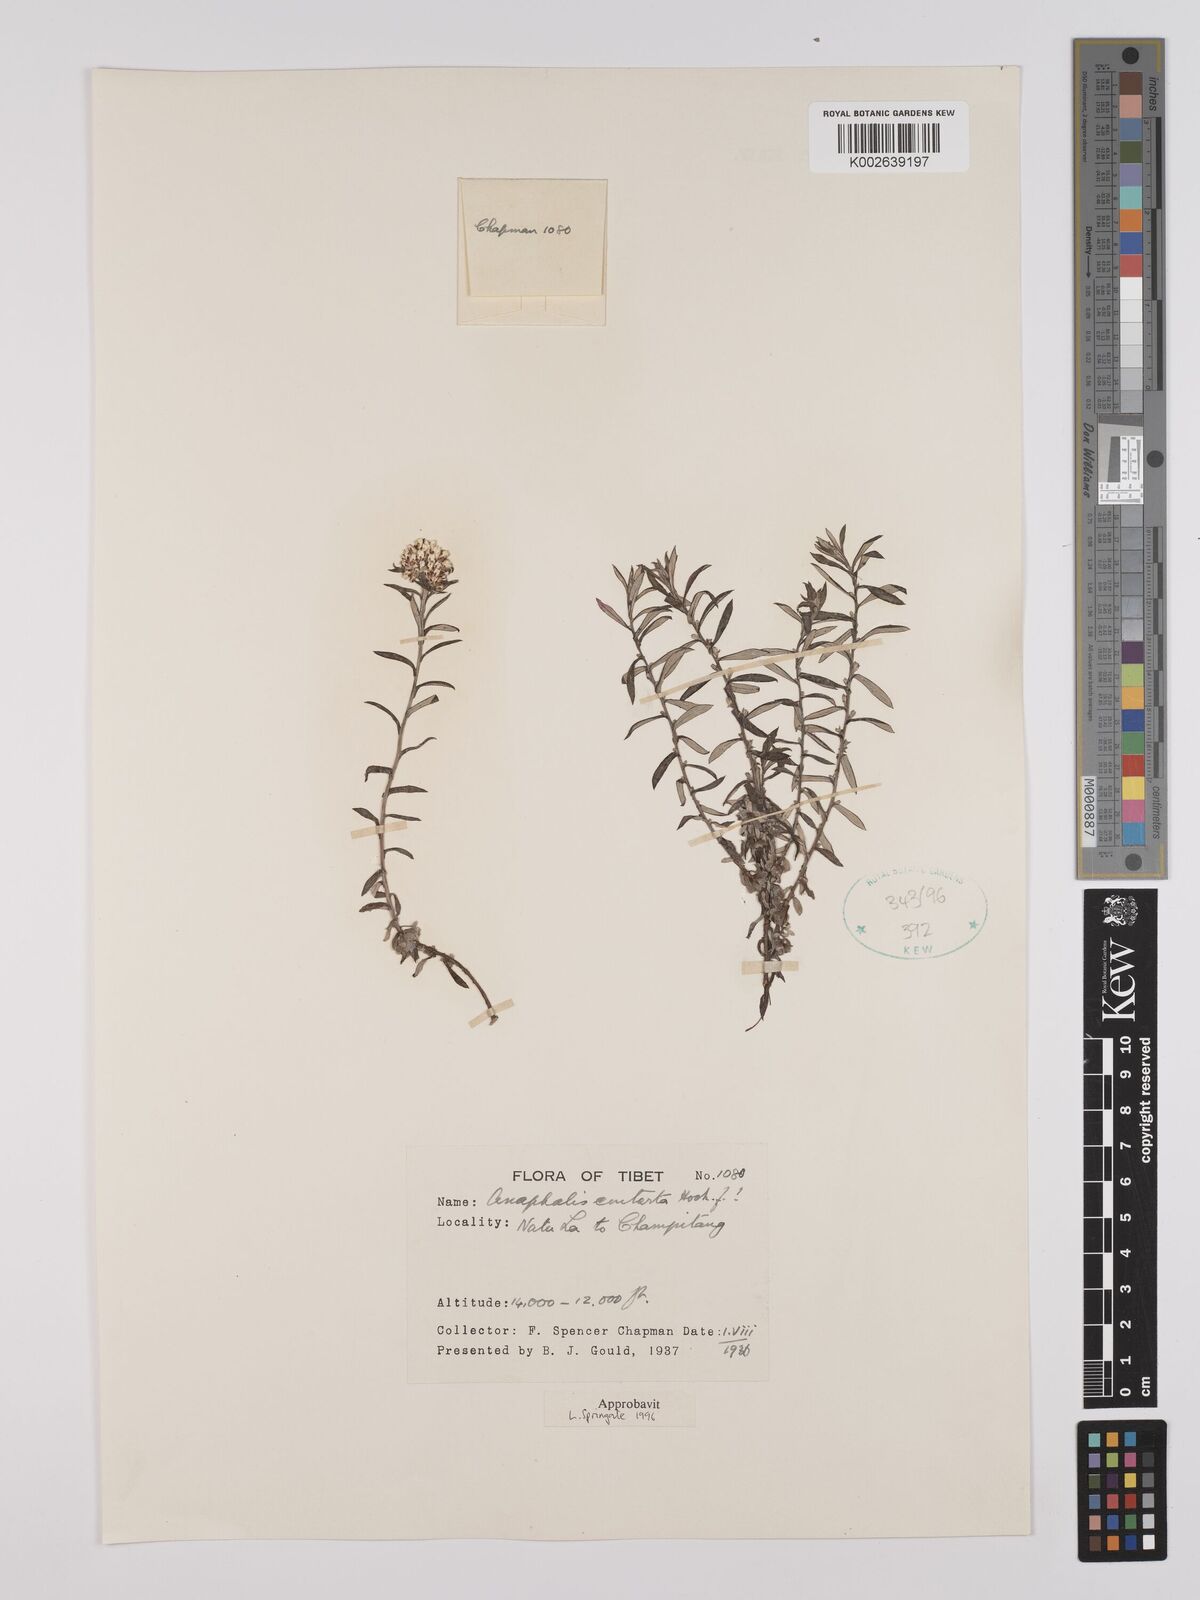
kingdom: Plantae
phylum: Tracheophyta
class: Magnoliopsida
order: Asterales
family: Asteraceae
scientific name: Asteraceae
